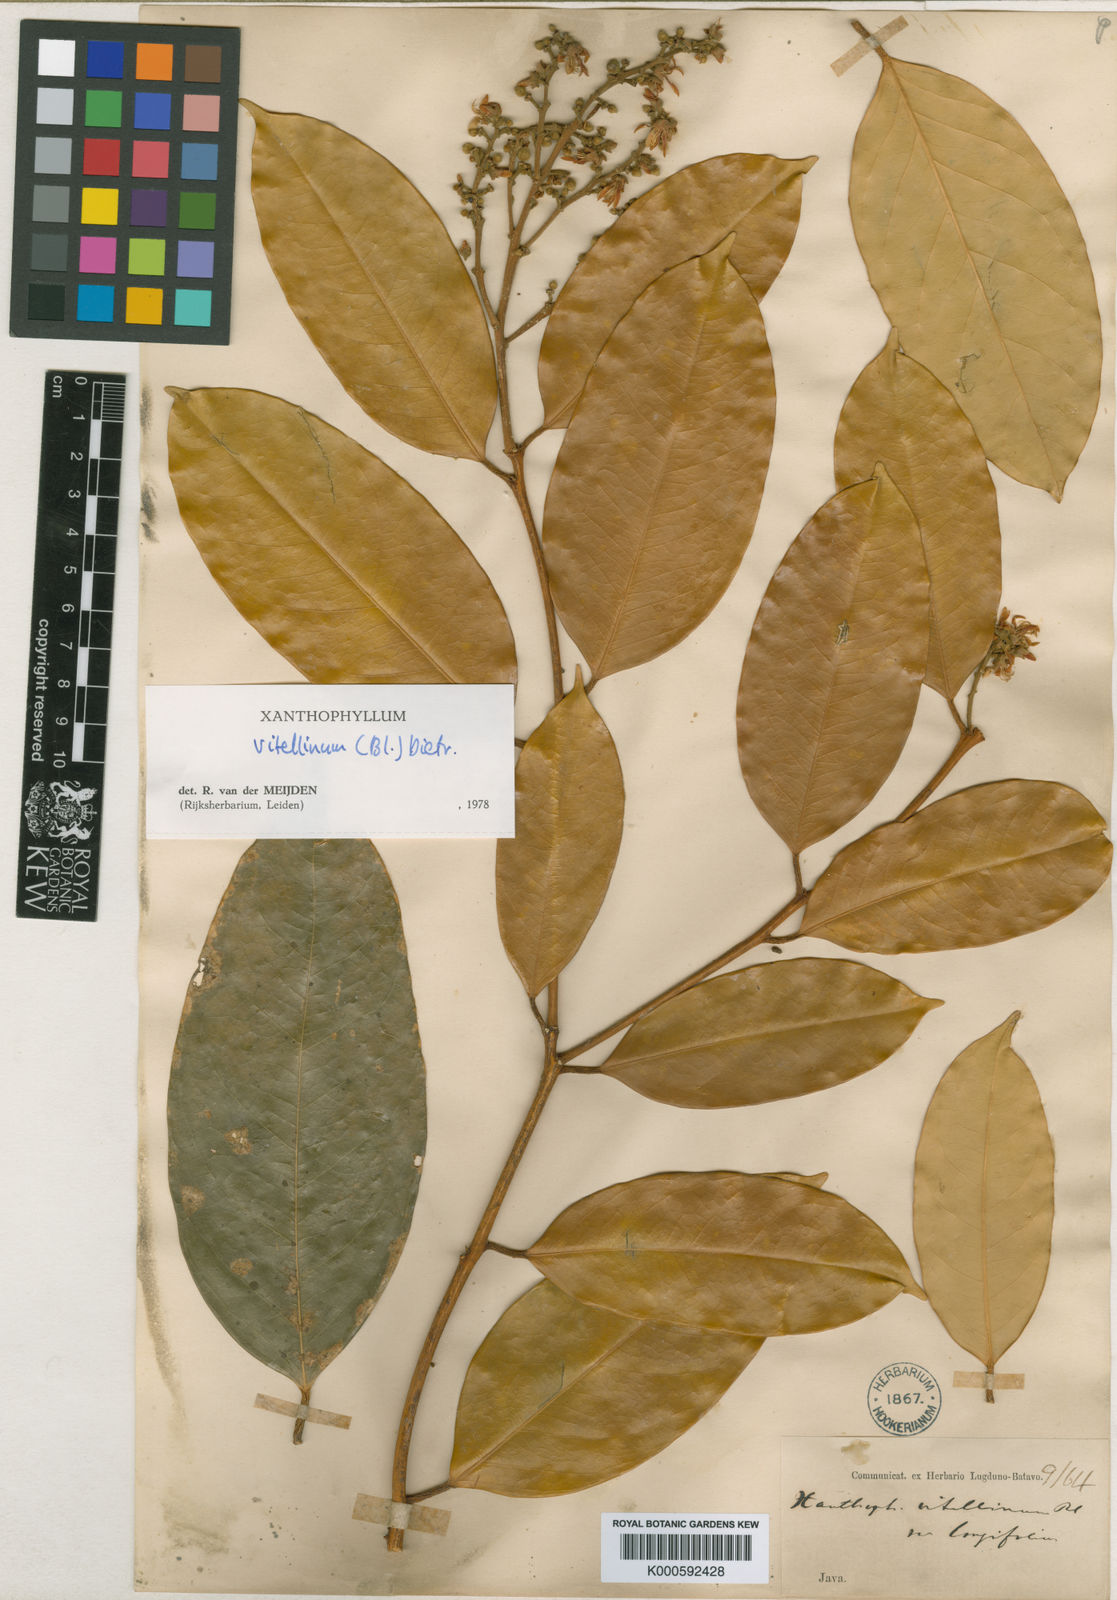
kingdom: Plantae
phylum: Tracheophyta
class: Magnoliopsida
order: Fabales
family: Polygalaceae
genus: Xanthophyllum
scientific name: Xanthophyllum vitellinum
